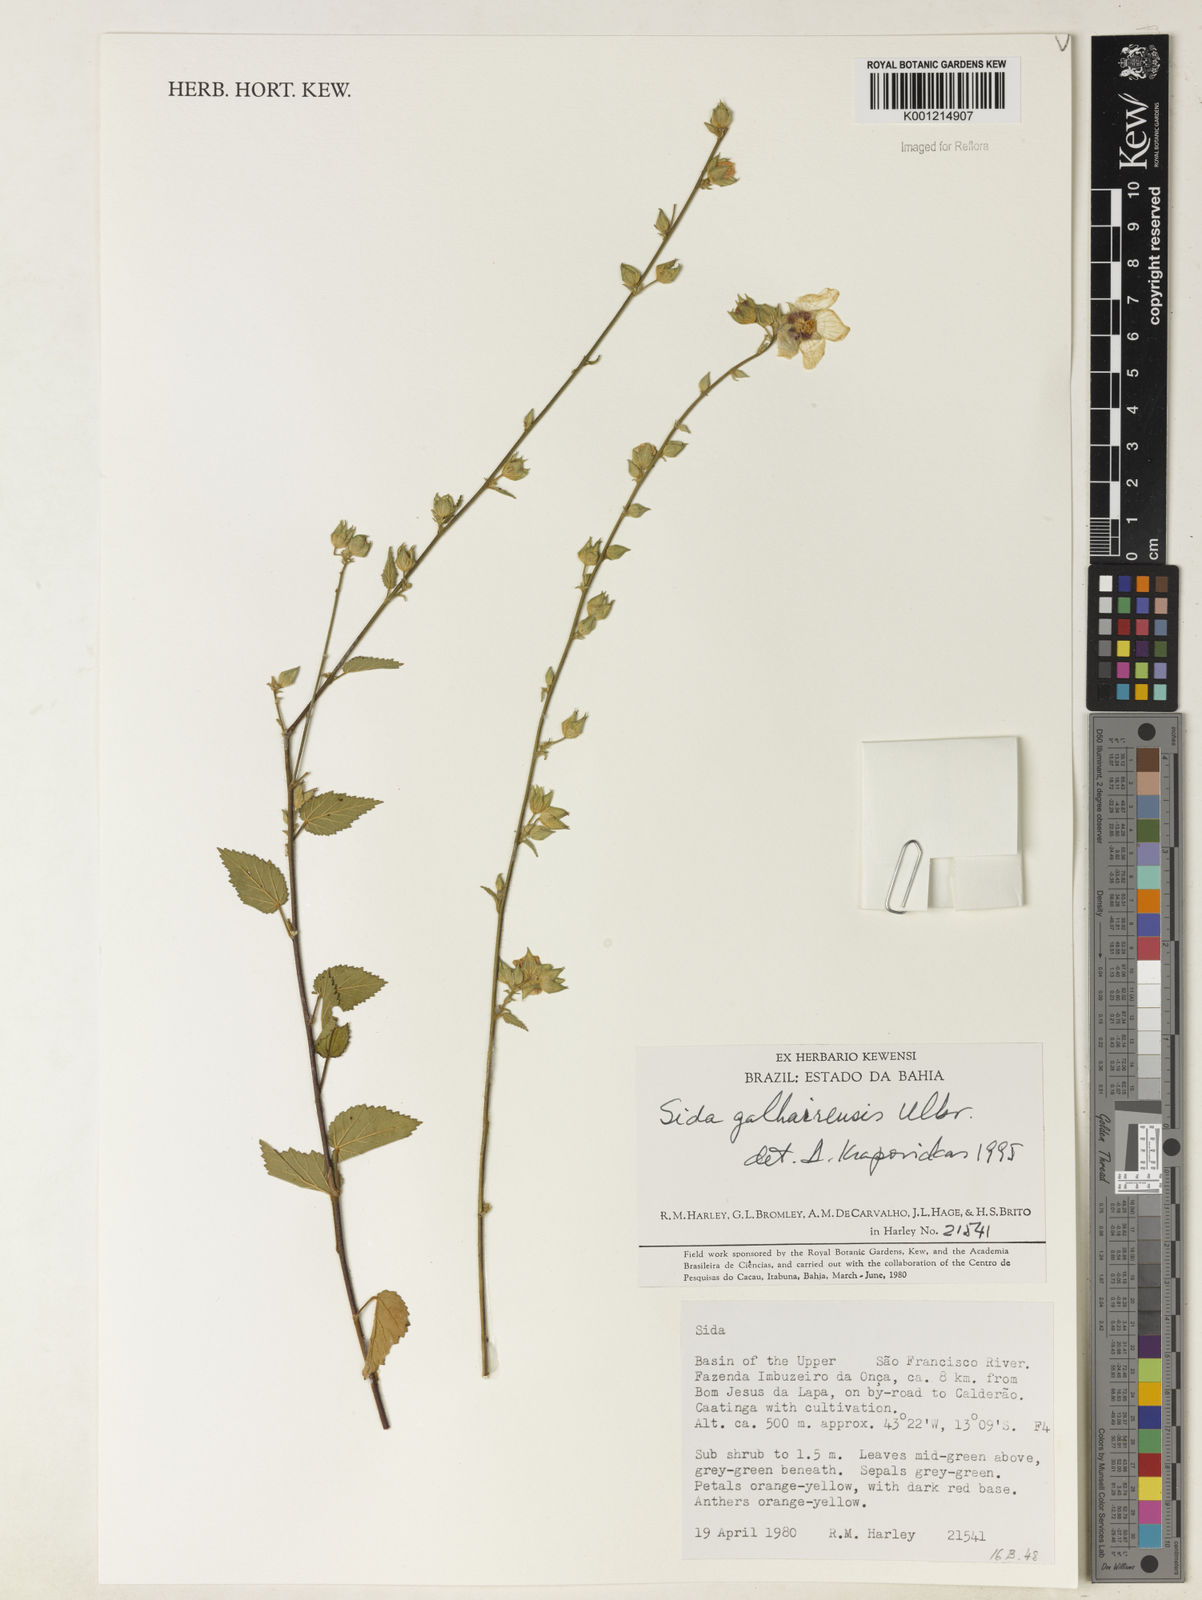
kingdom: Plantae
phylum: Tracheophyta
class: Magnoliopsida
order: Malvales
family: Malvaceae
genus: Sida
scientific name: Sida galheirensis
